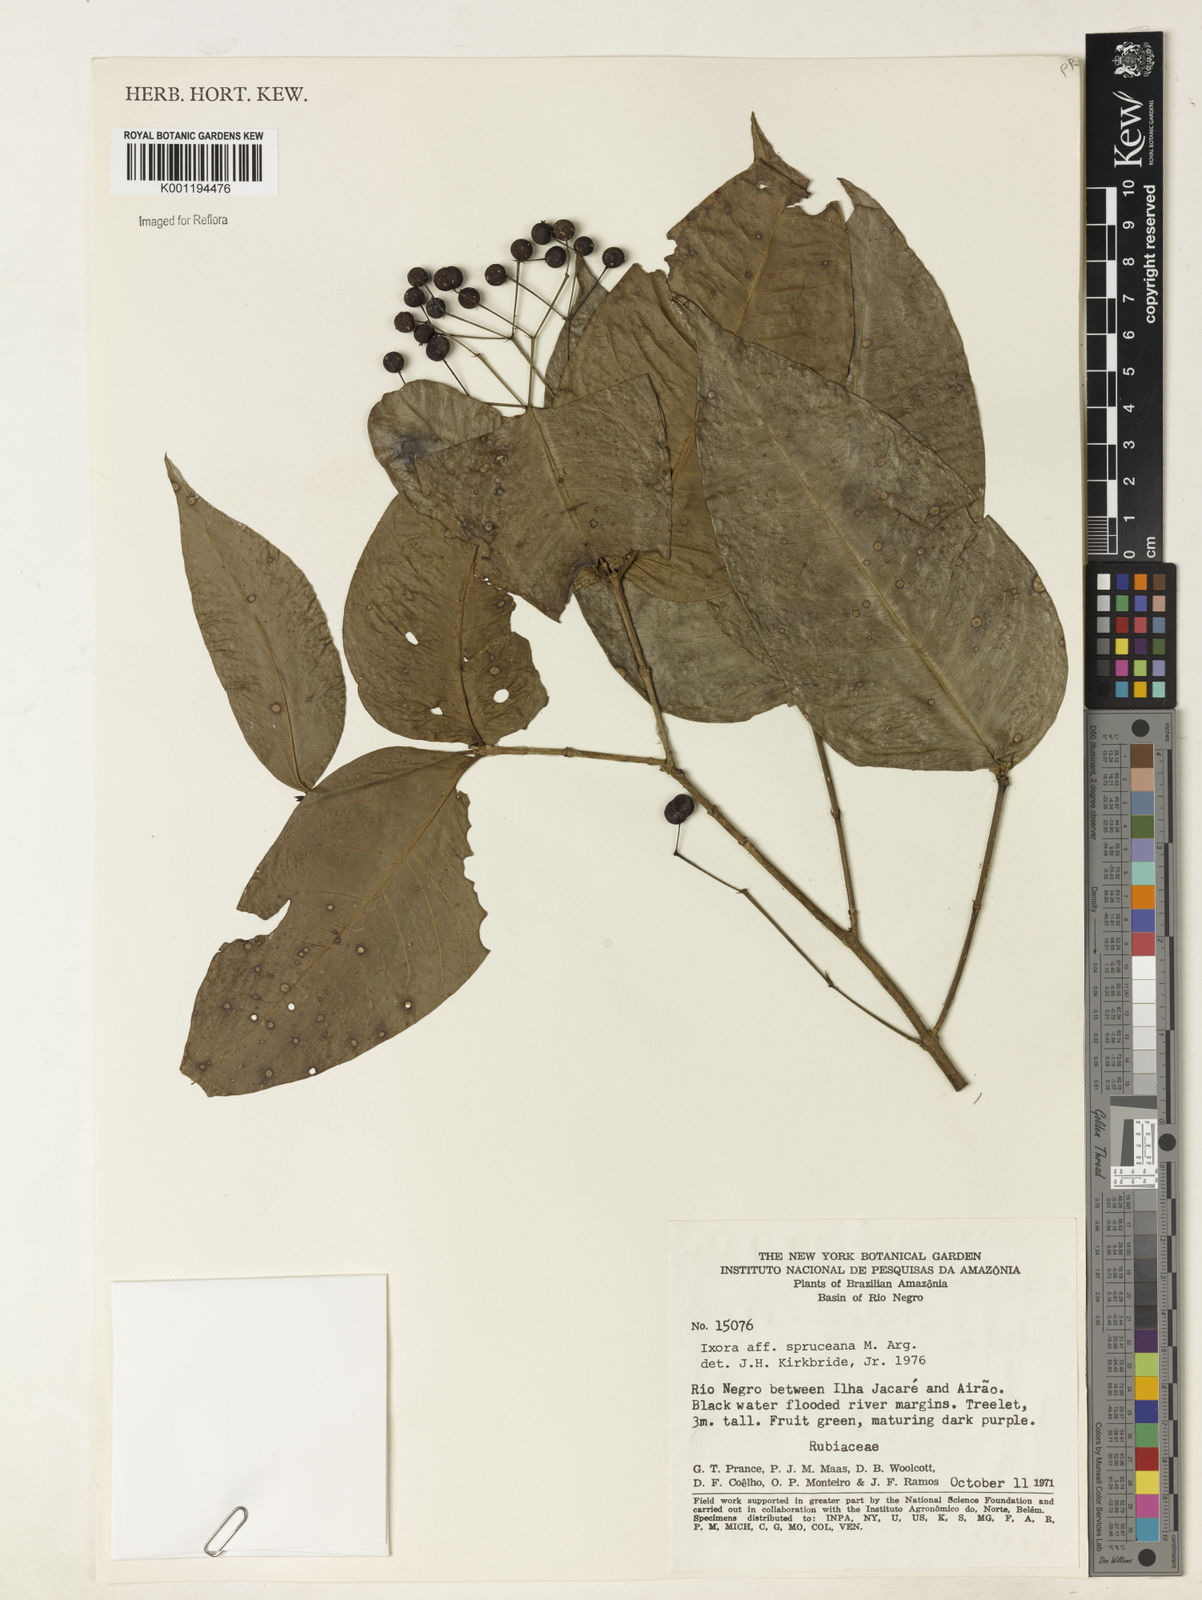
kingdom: Plantae
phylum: Tracheophyta
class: Magnoliopsida
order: Gentianales
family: Rubiaceae
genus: Ixora
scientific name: Ixora
